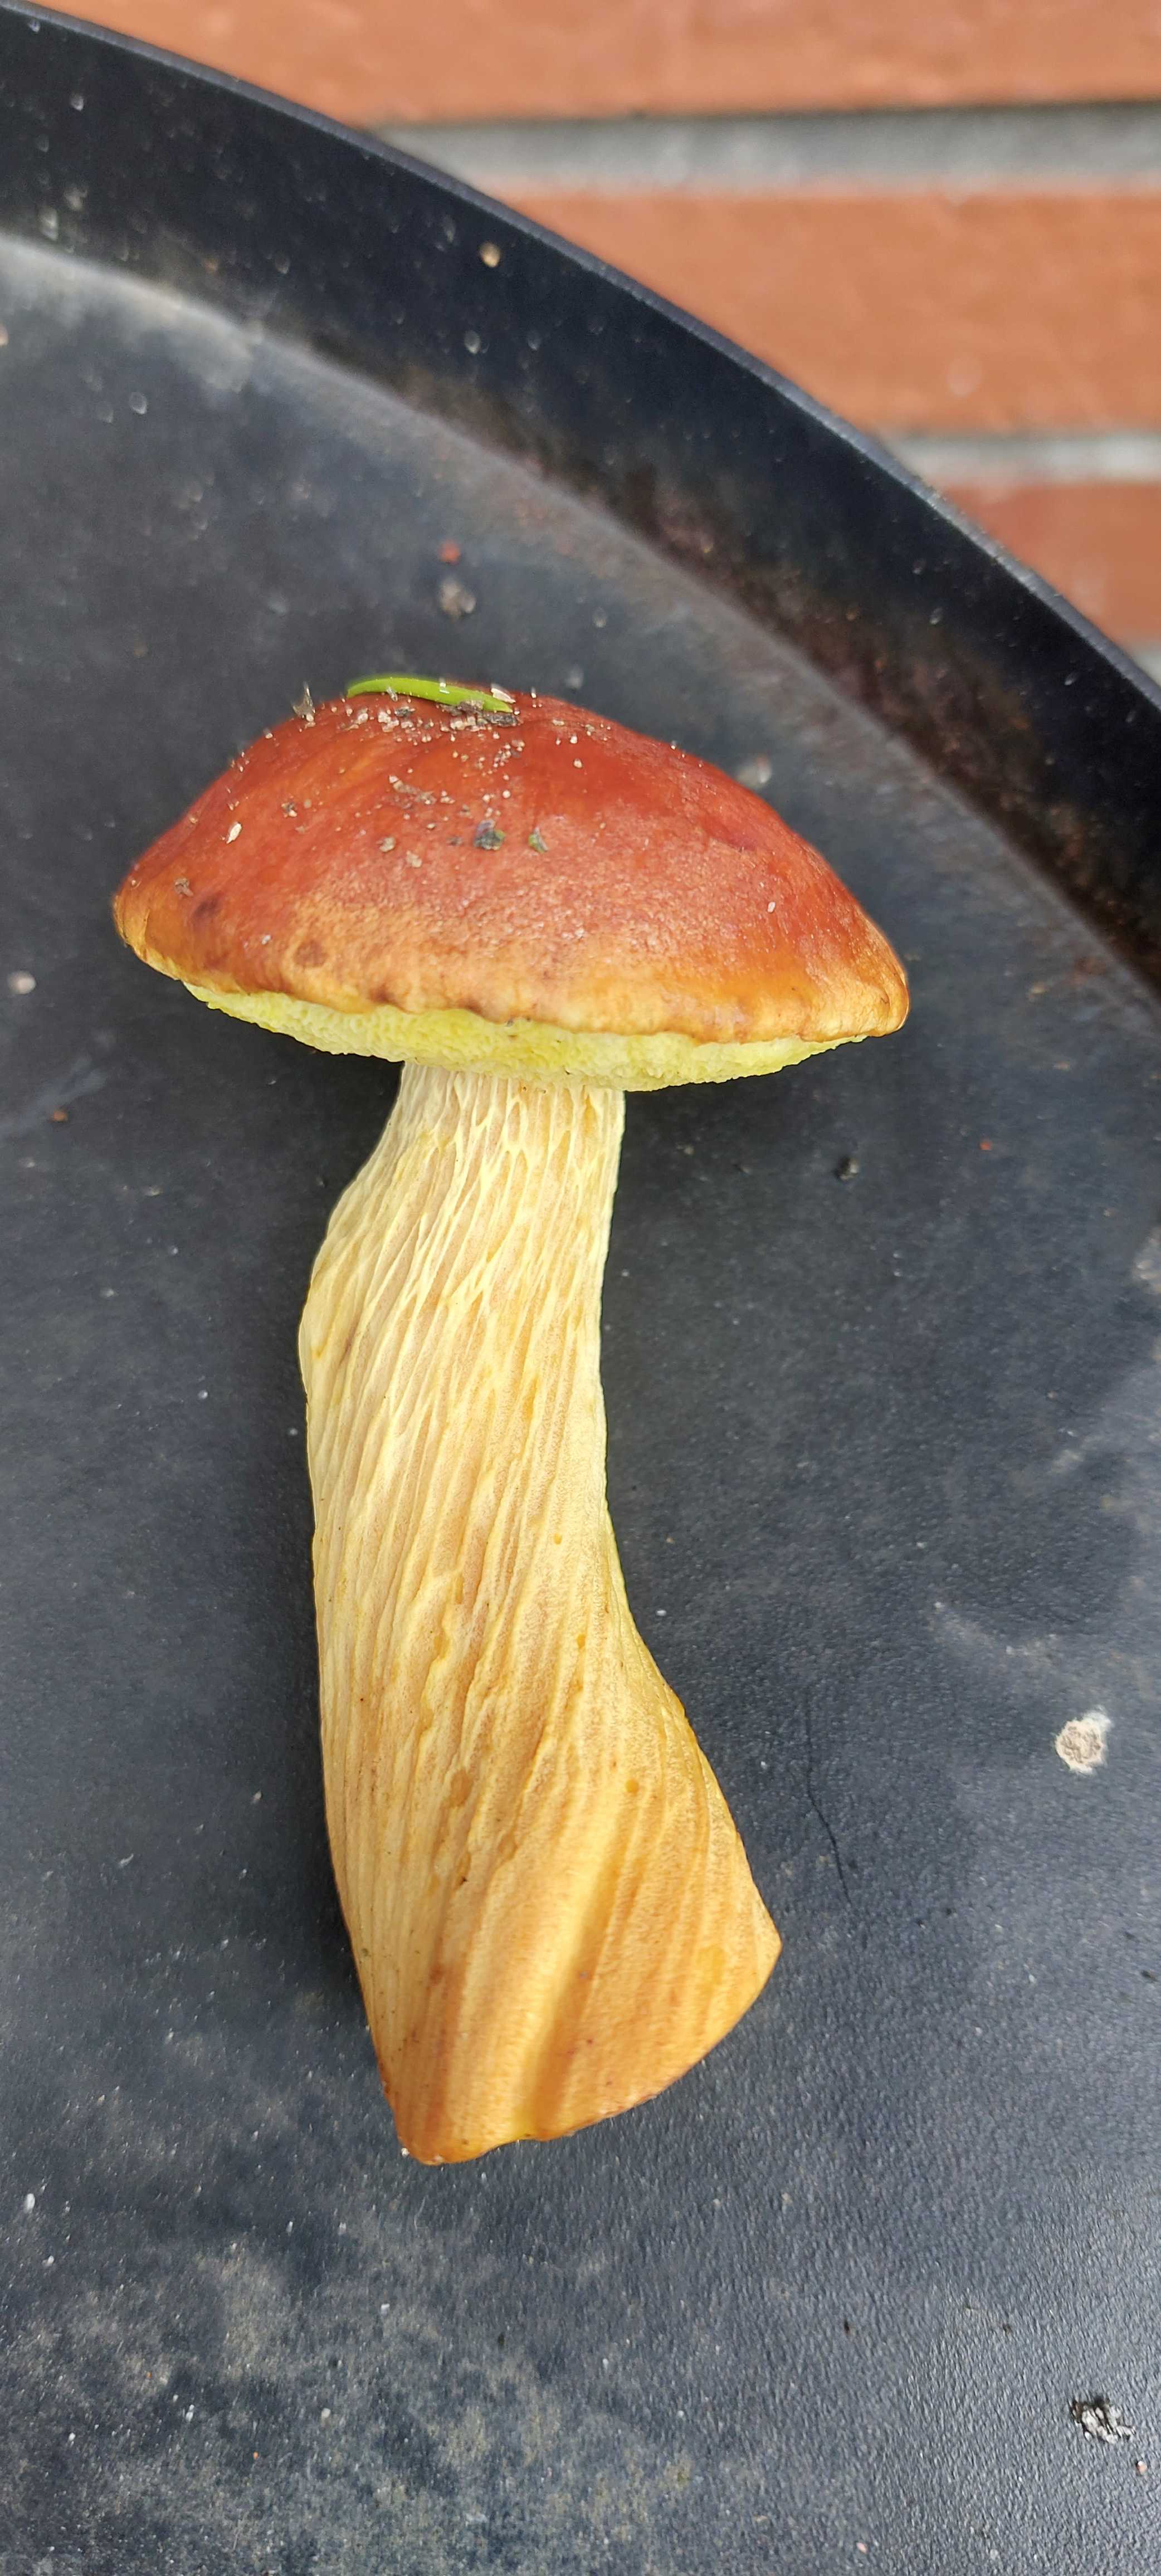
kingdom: Fungi
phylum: Basidiomycota
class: Agaricomycetes
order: Boletales
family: Boletaceae
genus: Aureoboletus
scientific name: Aureoboletus projectellus
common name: ribbestokket rørhat
